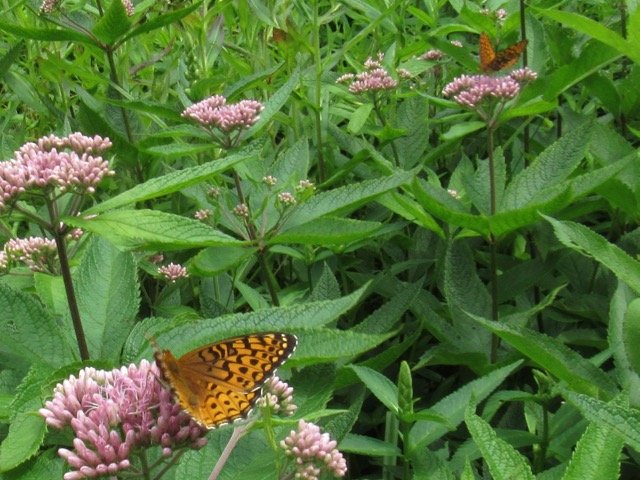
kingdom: Animalia
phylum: Arthropoda
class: Insecta
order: Lepidoptera
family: Nymphalidae
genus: Speyeria
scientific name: Speyeria atlantis
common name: Atlantis Fritillary
